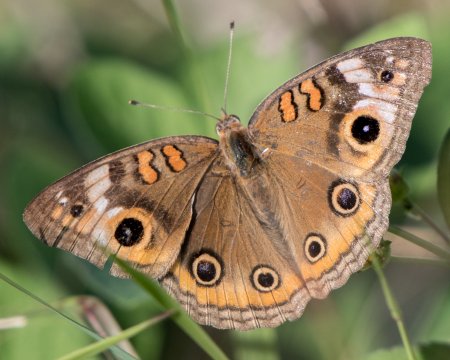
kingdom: Animalia
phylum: Arthropoda
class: Insecta
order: Lepidoptera
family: Nymphalidae
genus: Junonia
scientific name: Junonia evarete
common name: Mangrove Buckeye
